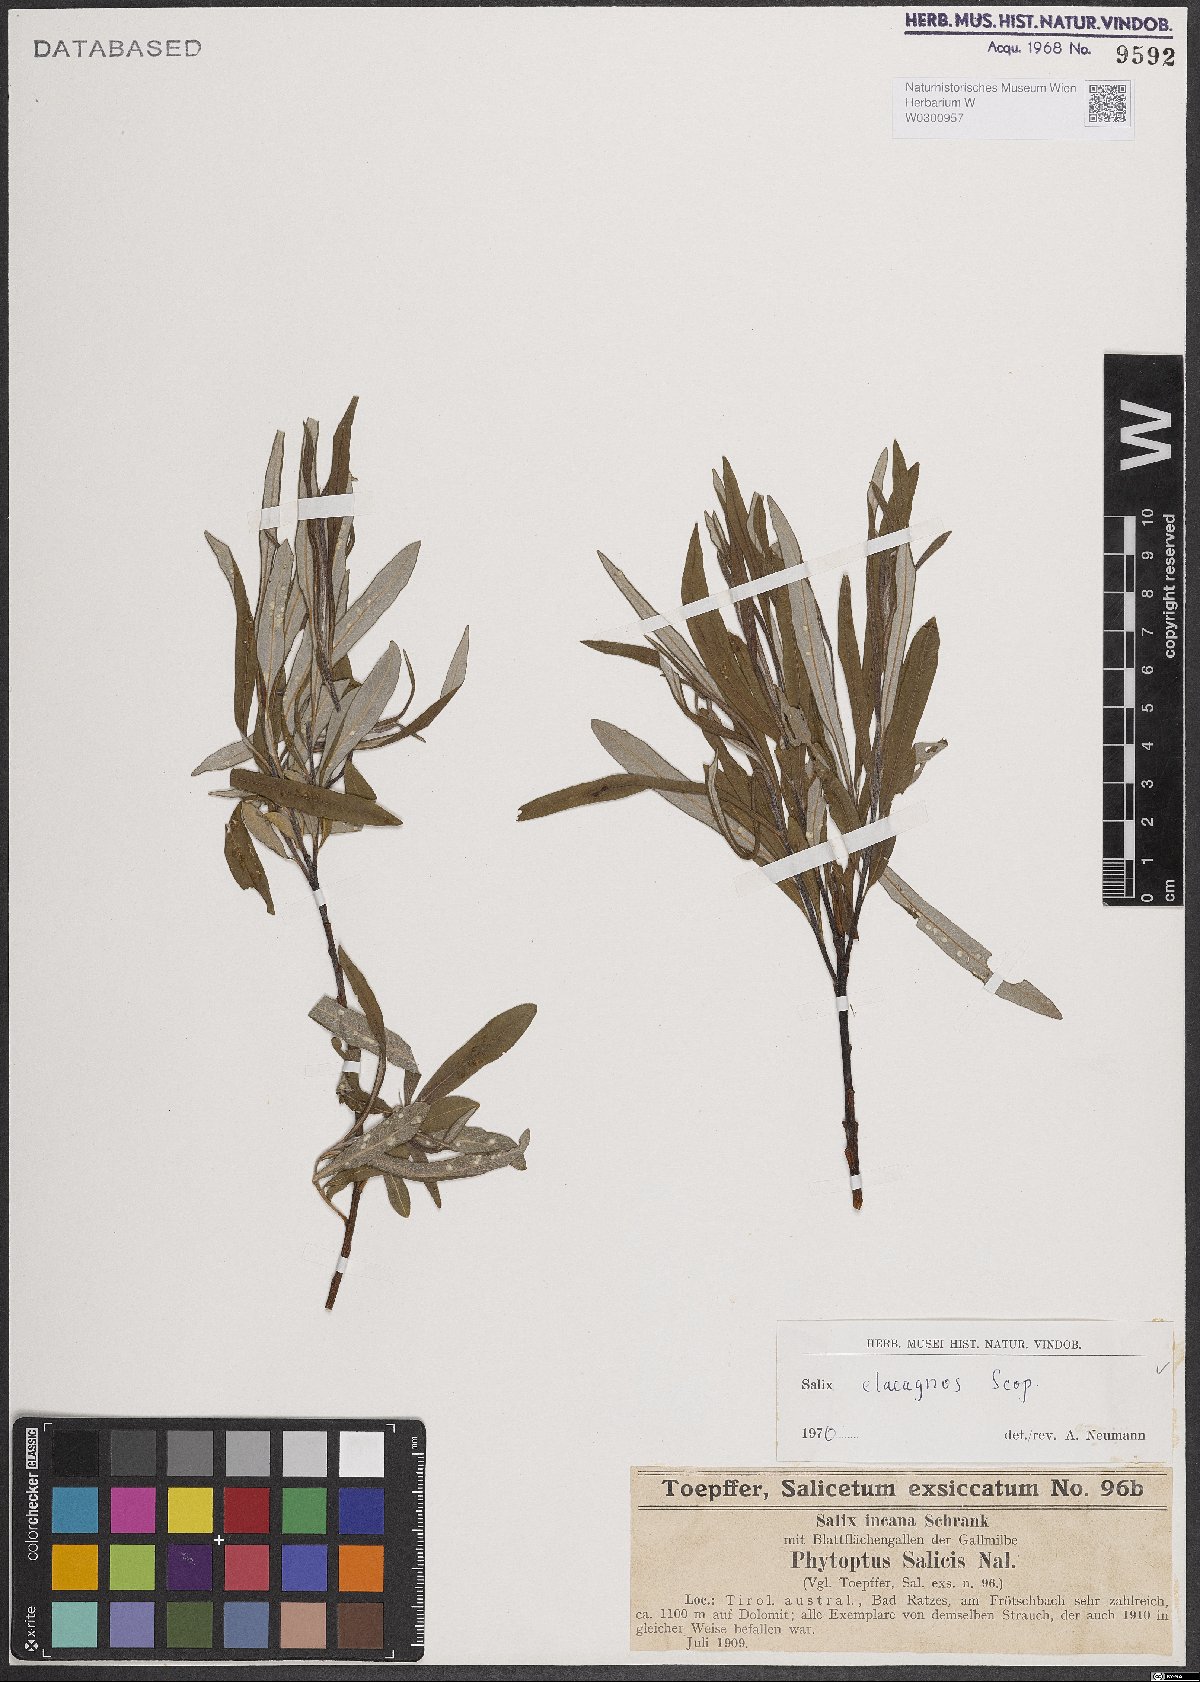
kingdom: Plantae
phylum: Tracheophyta
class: Magnoliopsida
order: Malpighiales
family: Salicaceae
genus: Salix
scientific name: Salix eleagnos
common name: Elaeagnus willow
